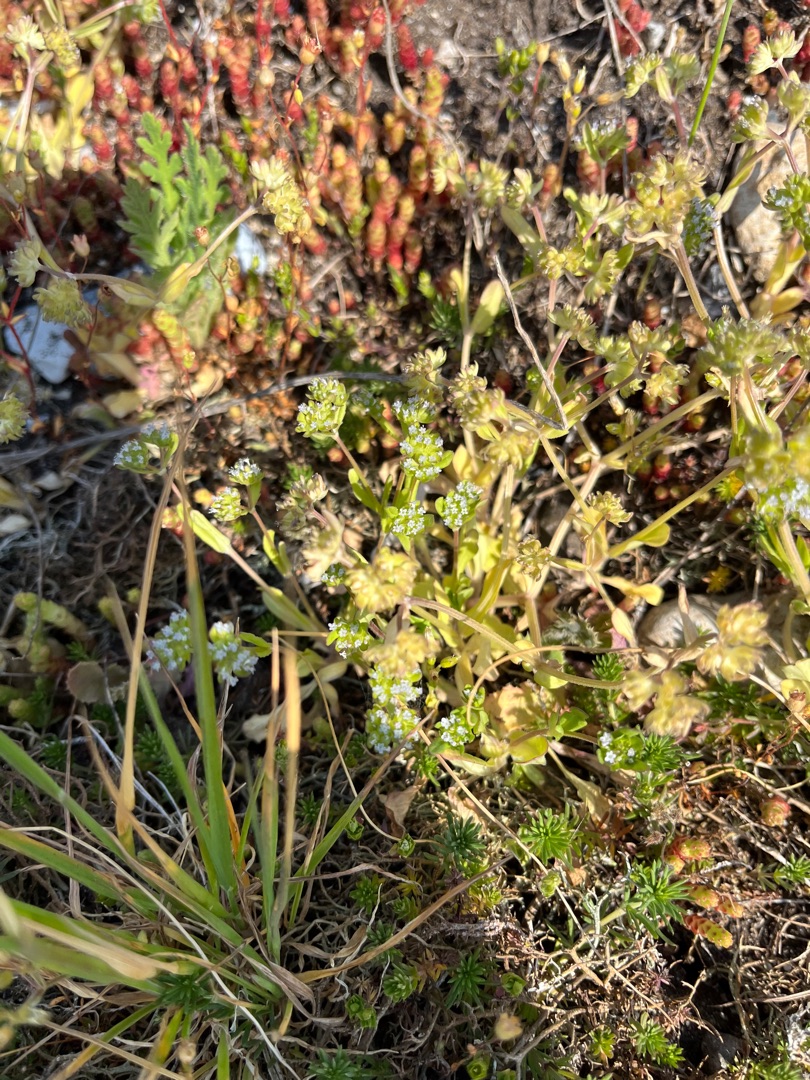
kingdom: Plantae
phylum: Tracheophyta
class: Magnoliopsida
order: Dipsacales
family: Caprifoliaceae
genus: Valerianella
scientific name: Valerianella locusta
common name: Tandfri vårsalat
